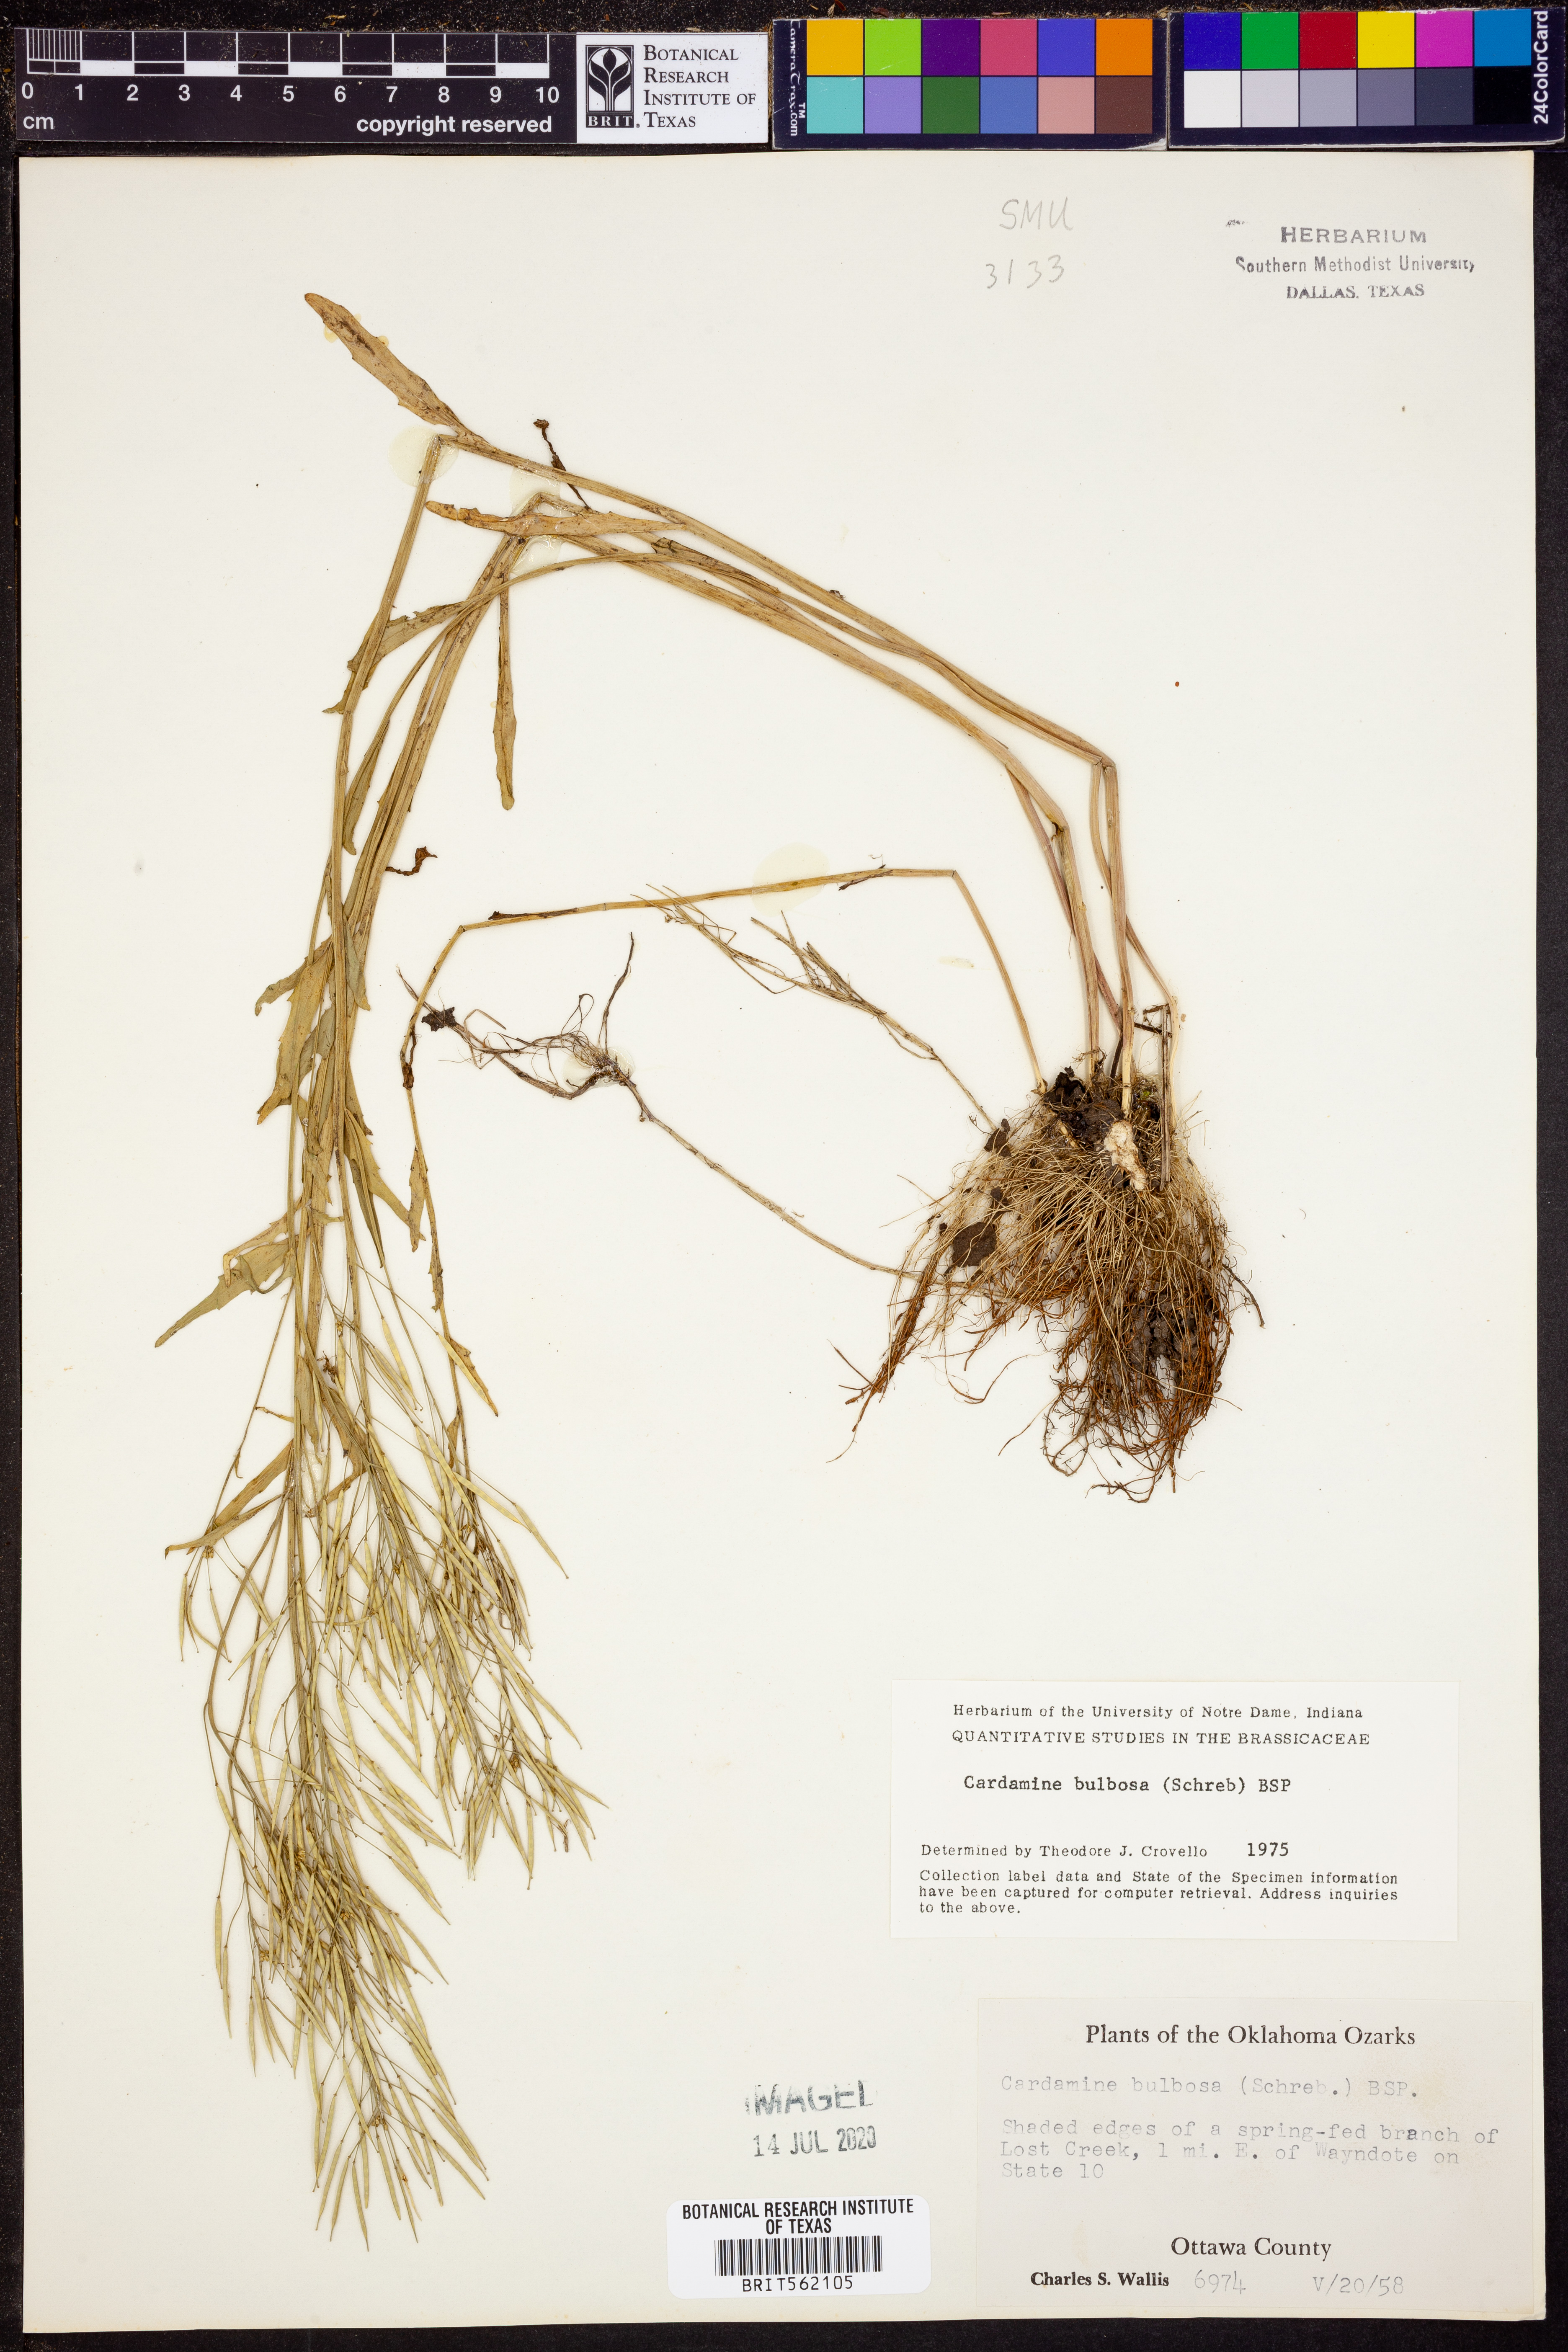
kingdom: Plantae
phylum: Tracheophyta
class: Magnoliopsida
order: Brassicales
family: Brassicaceae
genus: Cardamine
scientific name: Cardamine bulbosa
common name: Spring cress
